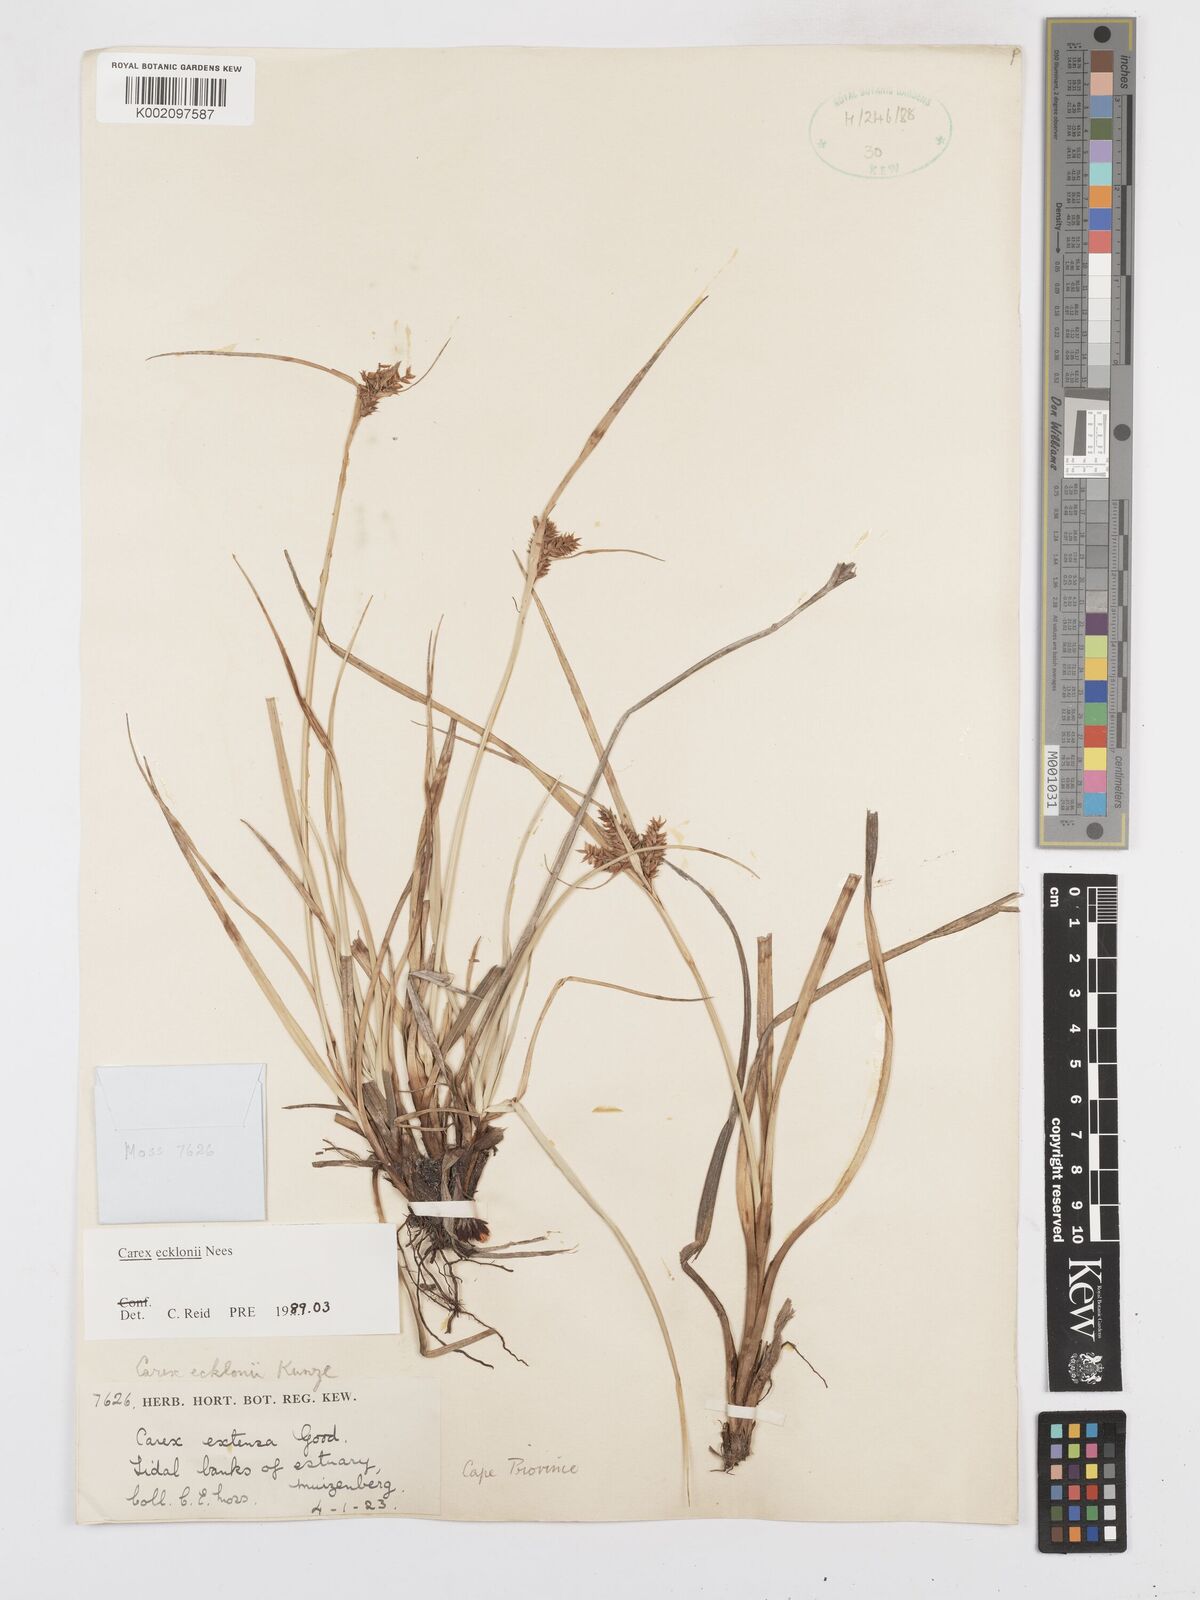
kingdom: Plantae
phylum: Tracheophyta
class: Liliopsida
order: Poales
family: Cyperaceae
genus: Carex
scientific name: Carex extensa
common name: Long-bracted sedge
